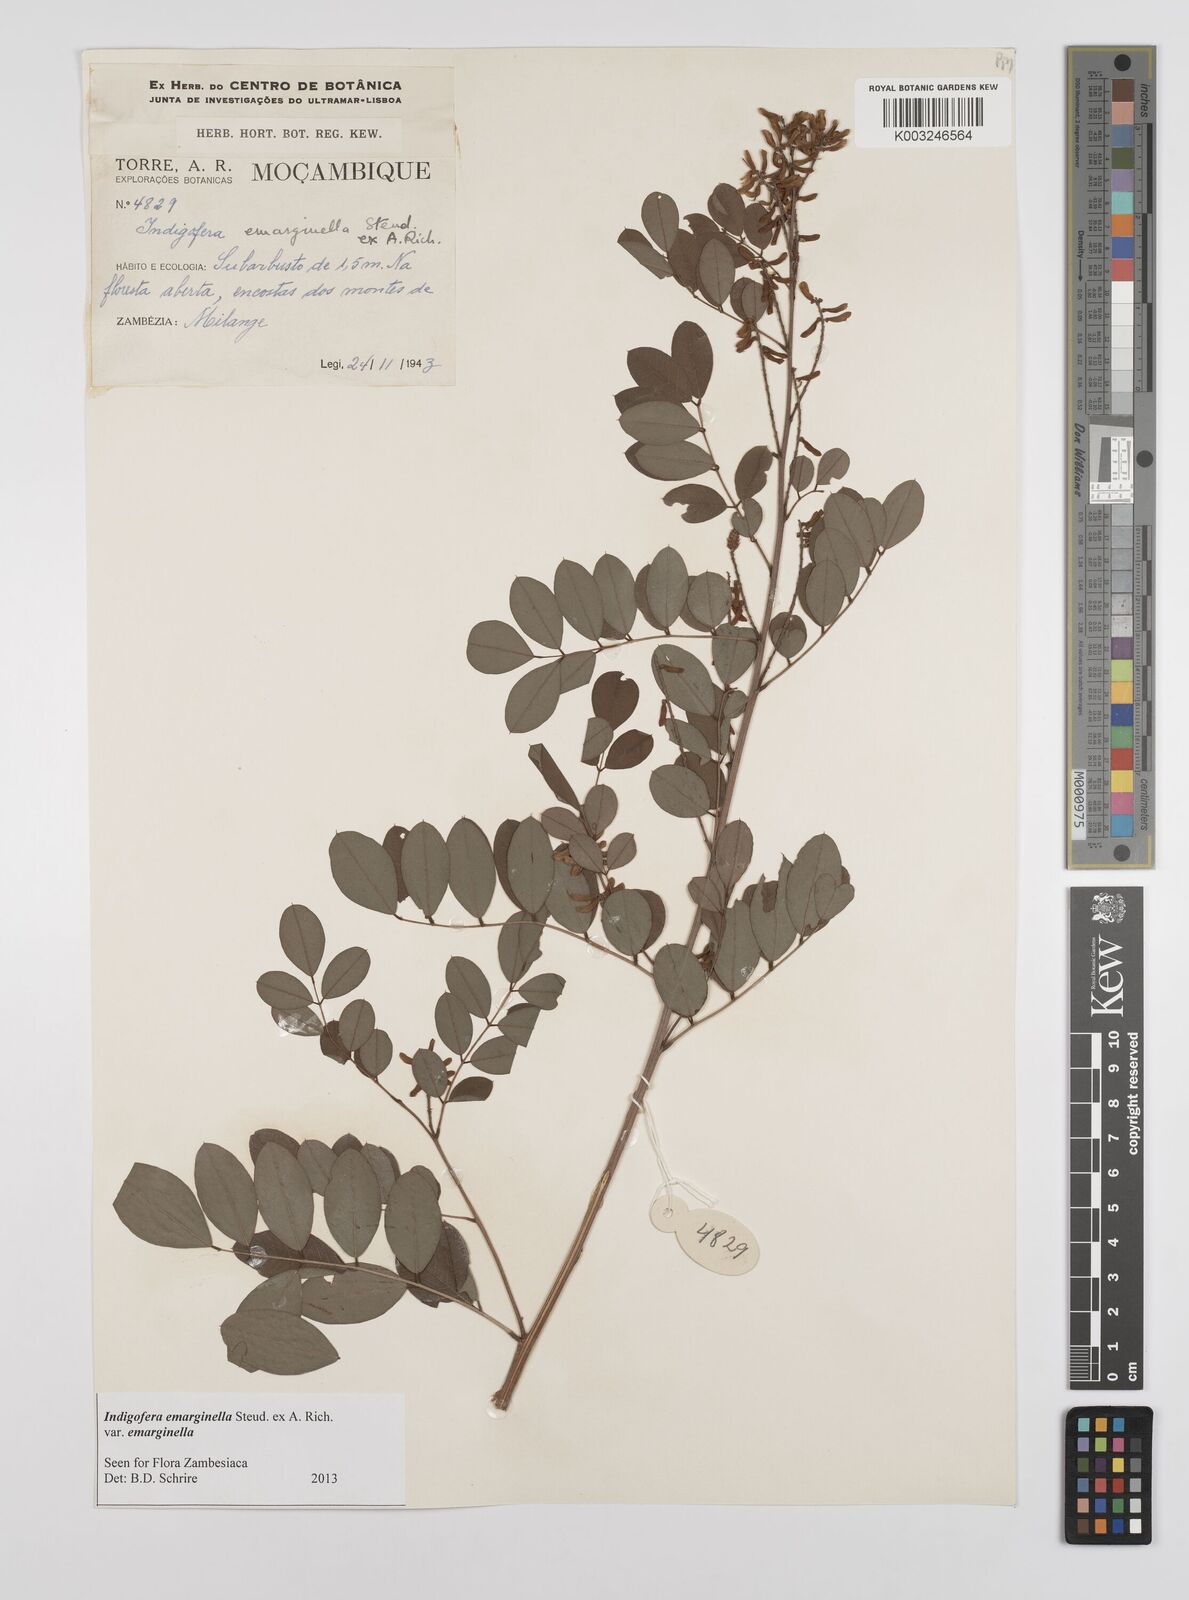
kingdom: Plantae
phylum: Tracheophyta
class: Magnoliopsida
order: Fabales
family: Fabaceae
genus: Indigofera
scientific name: Indigofera emarginella
